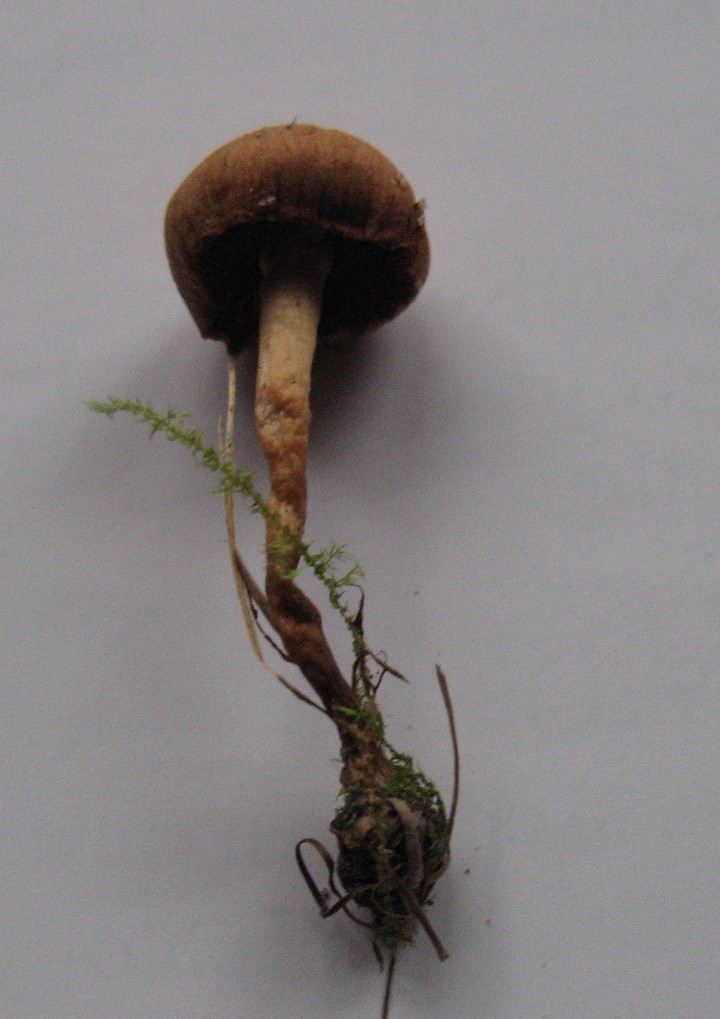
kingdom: Fungi
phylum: Basidiomycota
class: Agaricomycetes
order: Agaricales
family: Tubariaceae
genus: Tubaria
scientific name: Tubaria furfuracea
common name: kliddet fnughat
